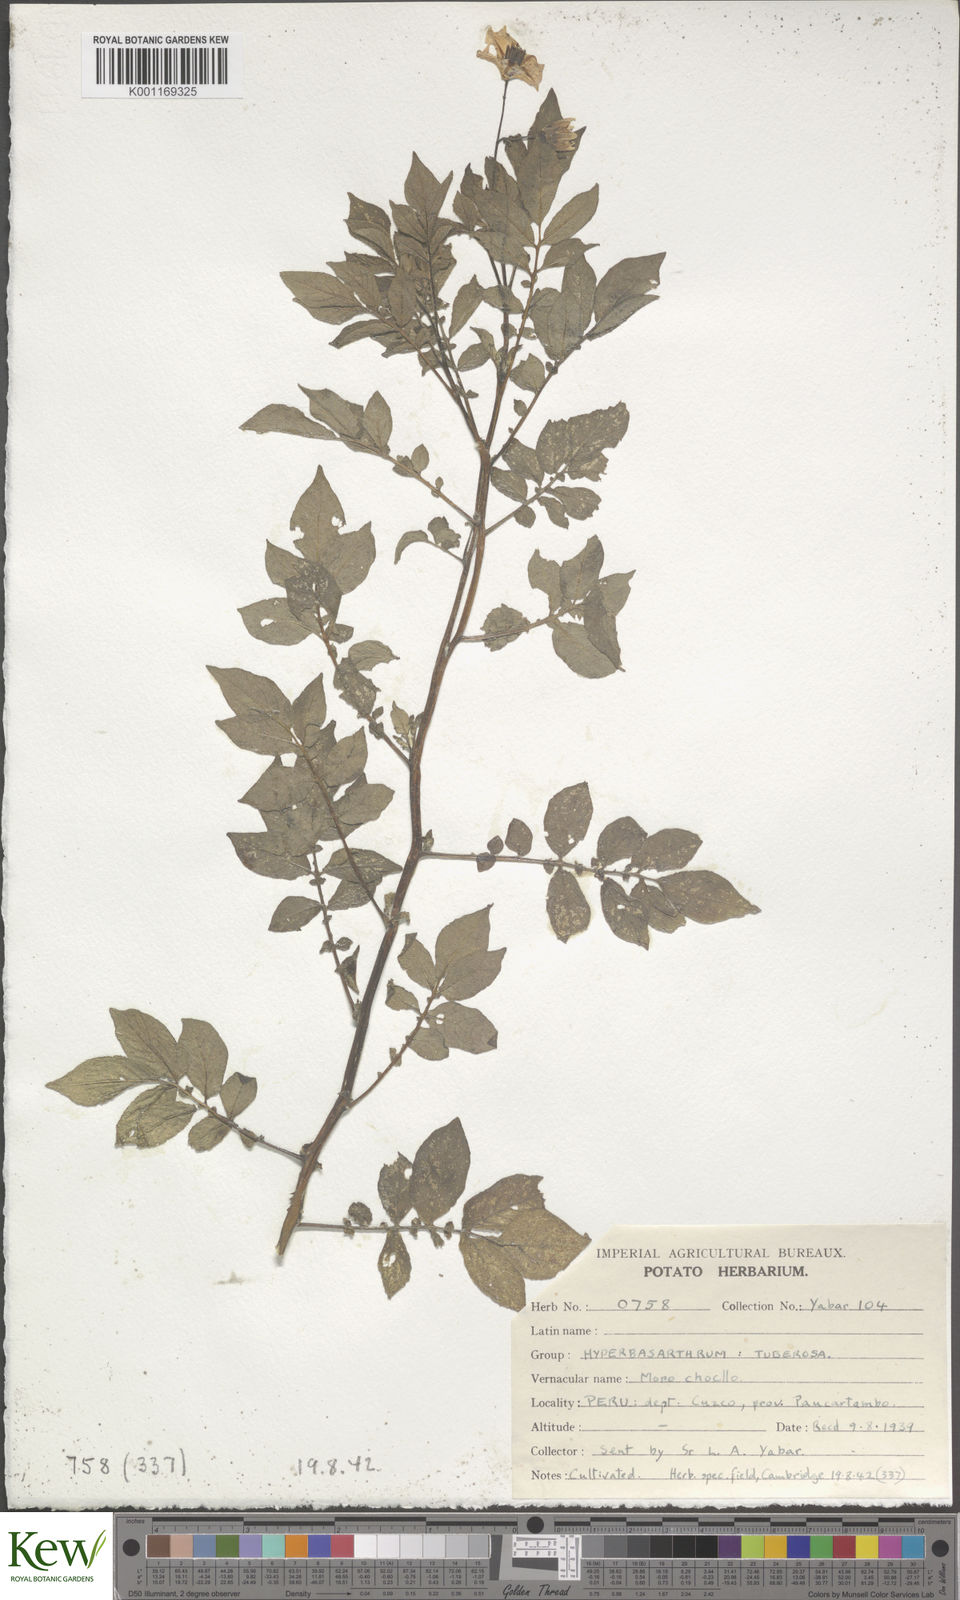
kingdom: Plantae
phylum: Tracheophyta
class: Magnoliopsida
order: Solanales
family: Solanaceae
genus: Solanum
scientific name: Solanum chaucha
